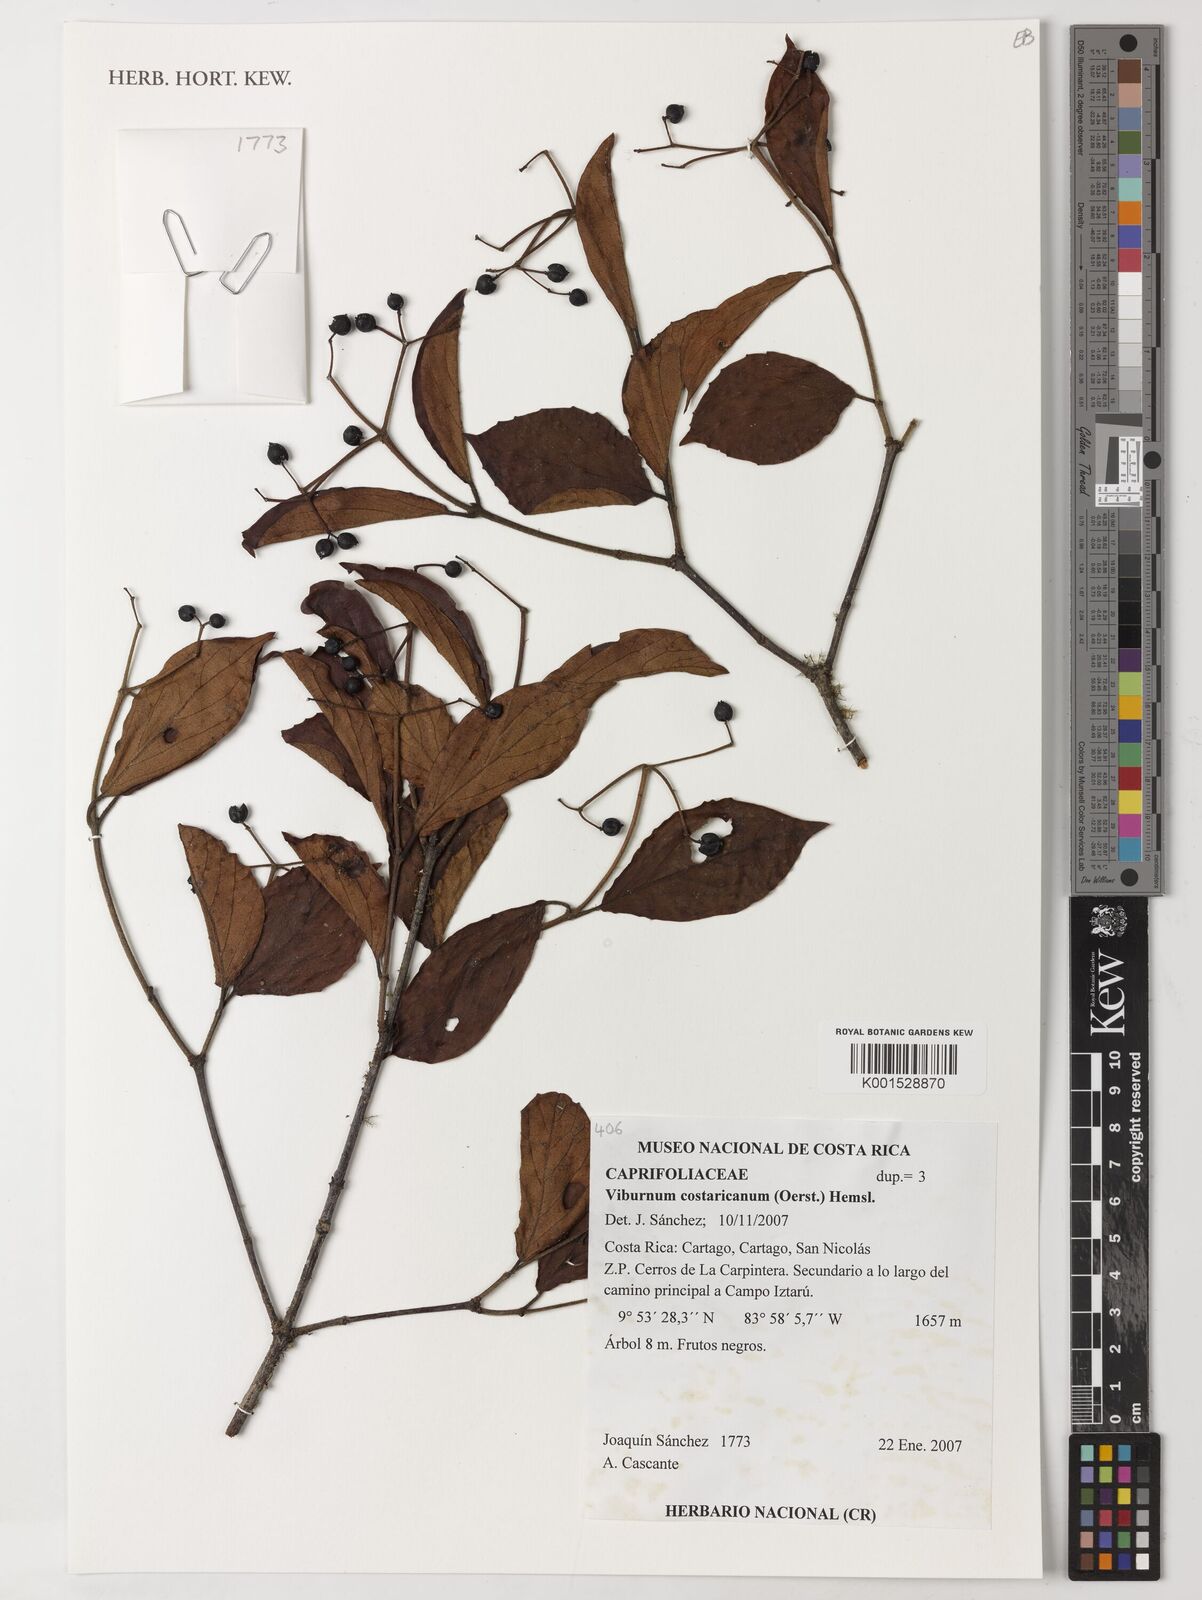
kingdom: Plantae
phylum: Tracheophyta
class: Magnoliopsida
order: Dipsacales
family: Viburnaceae
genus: Viburnum
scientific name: Viburnum costaricanum
